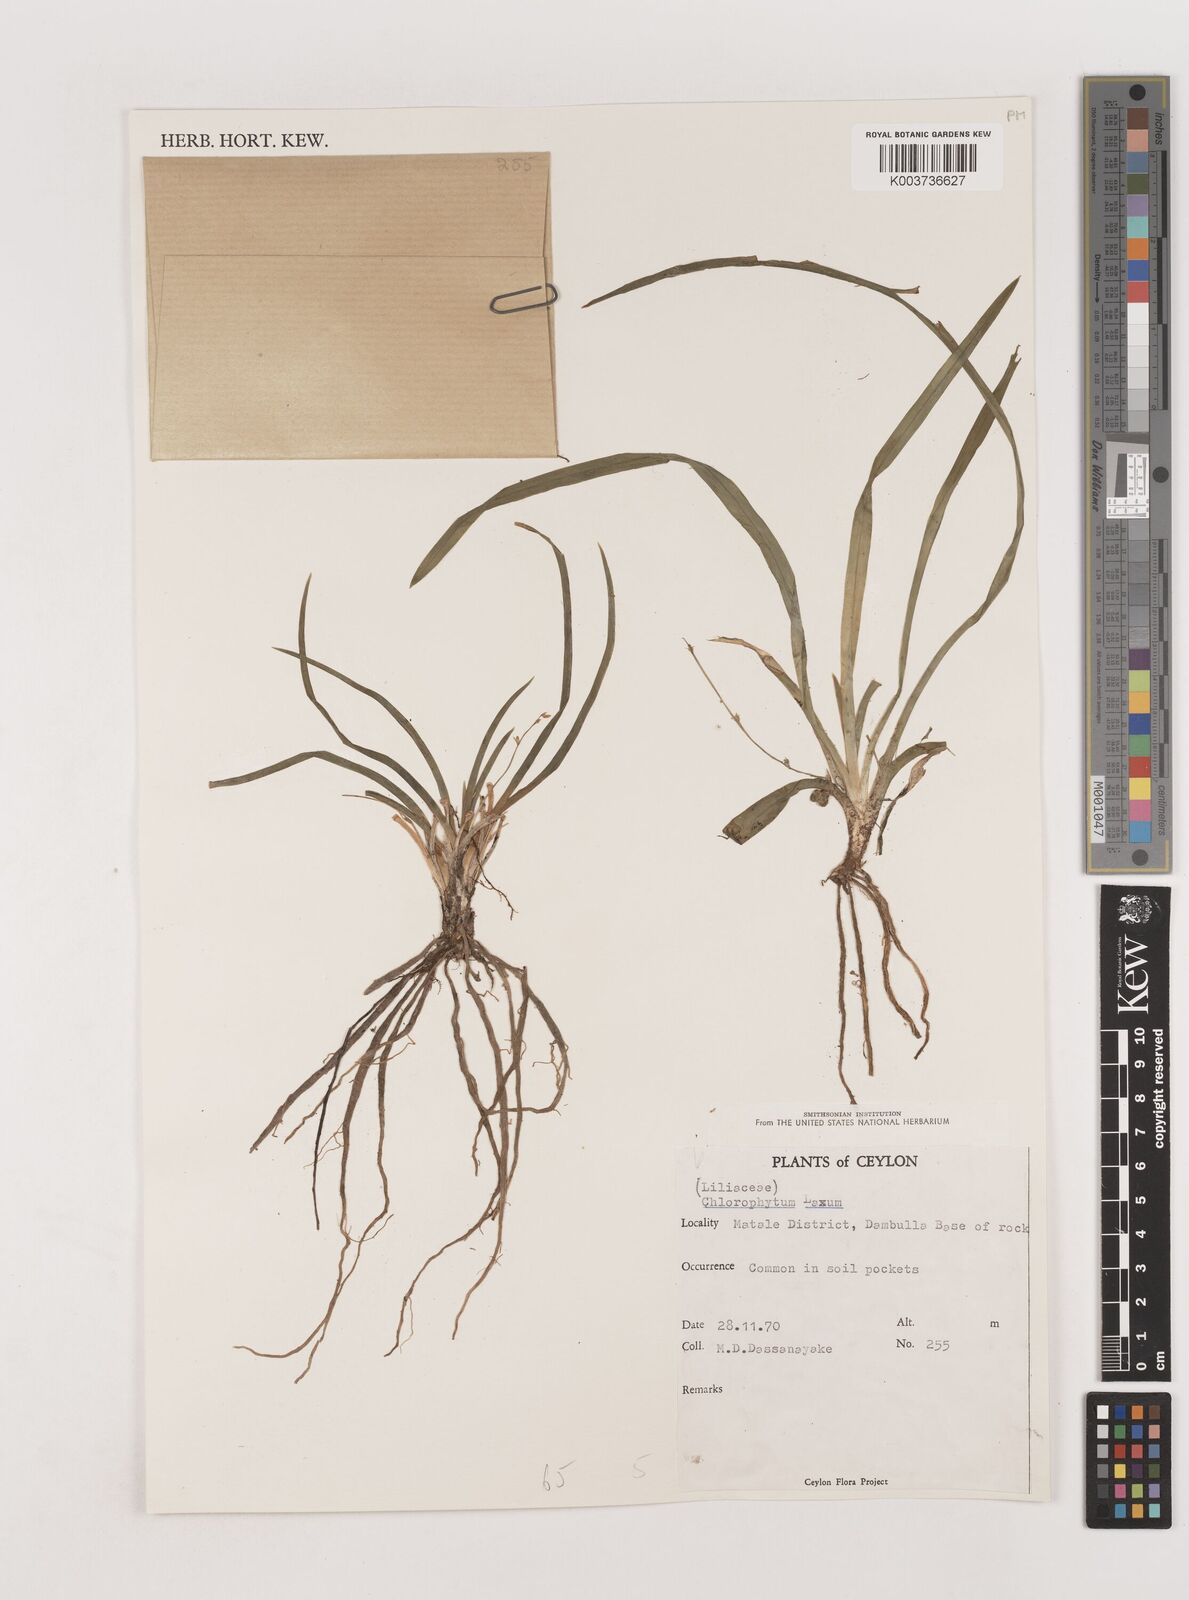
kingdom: Plantae
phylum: Tracheophyta
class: Liliopsida
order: Asparagales
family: Asparagaceae
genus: Chlorophytum
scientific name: Chlorophytum laxum
